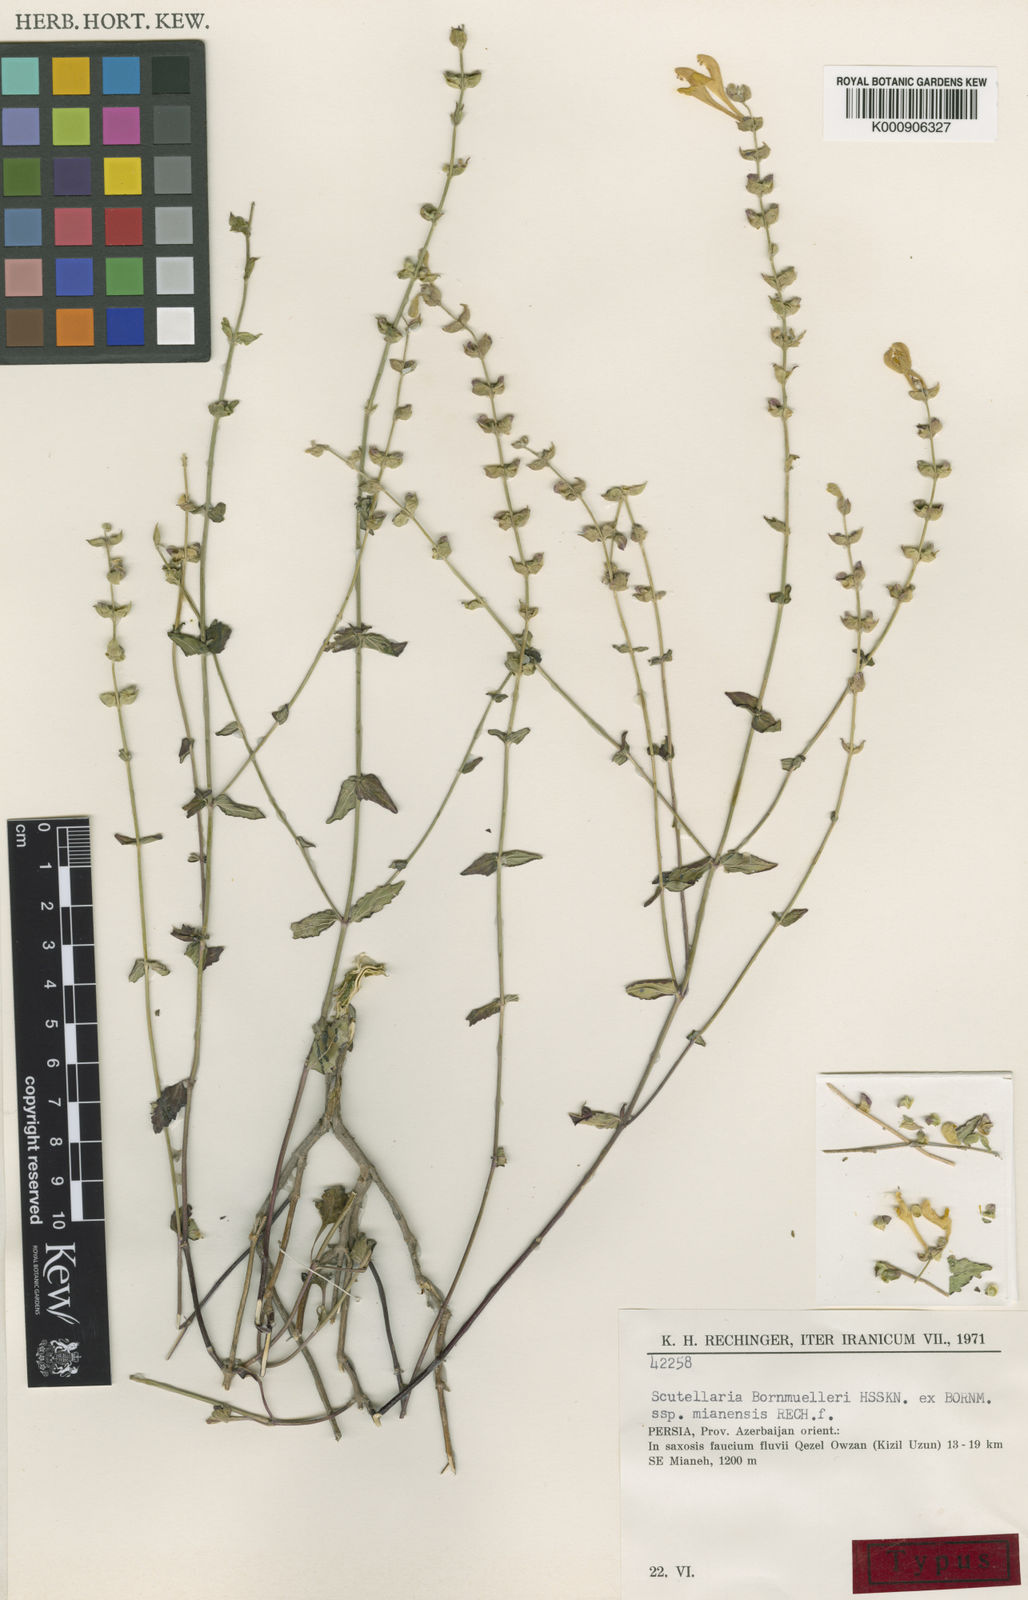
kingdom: Plantae
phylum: Tracheophyta
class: Magnoliopsida
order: Lamiales
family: Lamiaceae
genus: Scutellaria
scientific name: Scutellaria bornmuelleri
